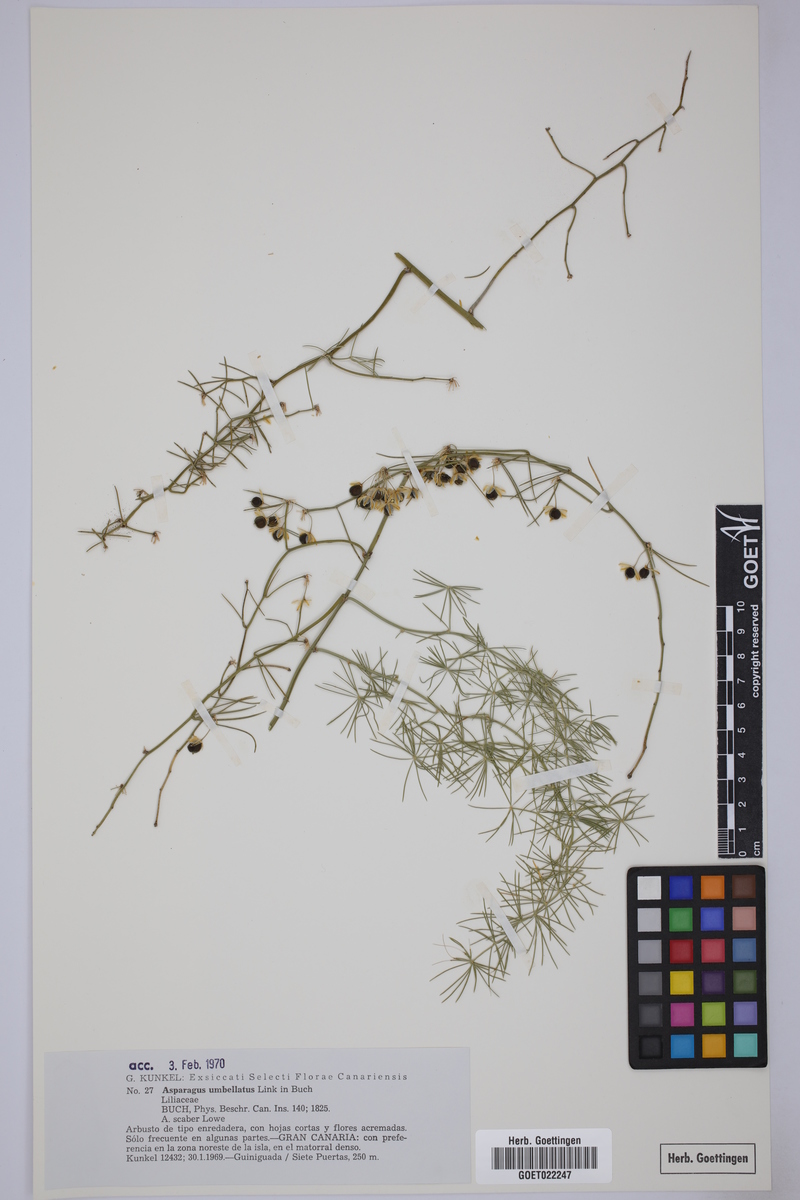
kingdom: Plantae
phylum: Tracheophyta
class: Liliopsida
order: Asparagales
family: Asparagaceae
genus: Asparagus
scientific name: Asparagus umbellatus
